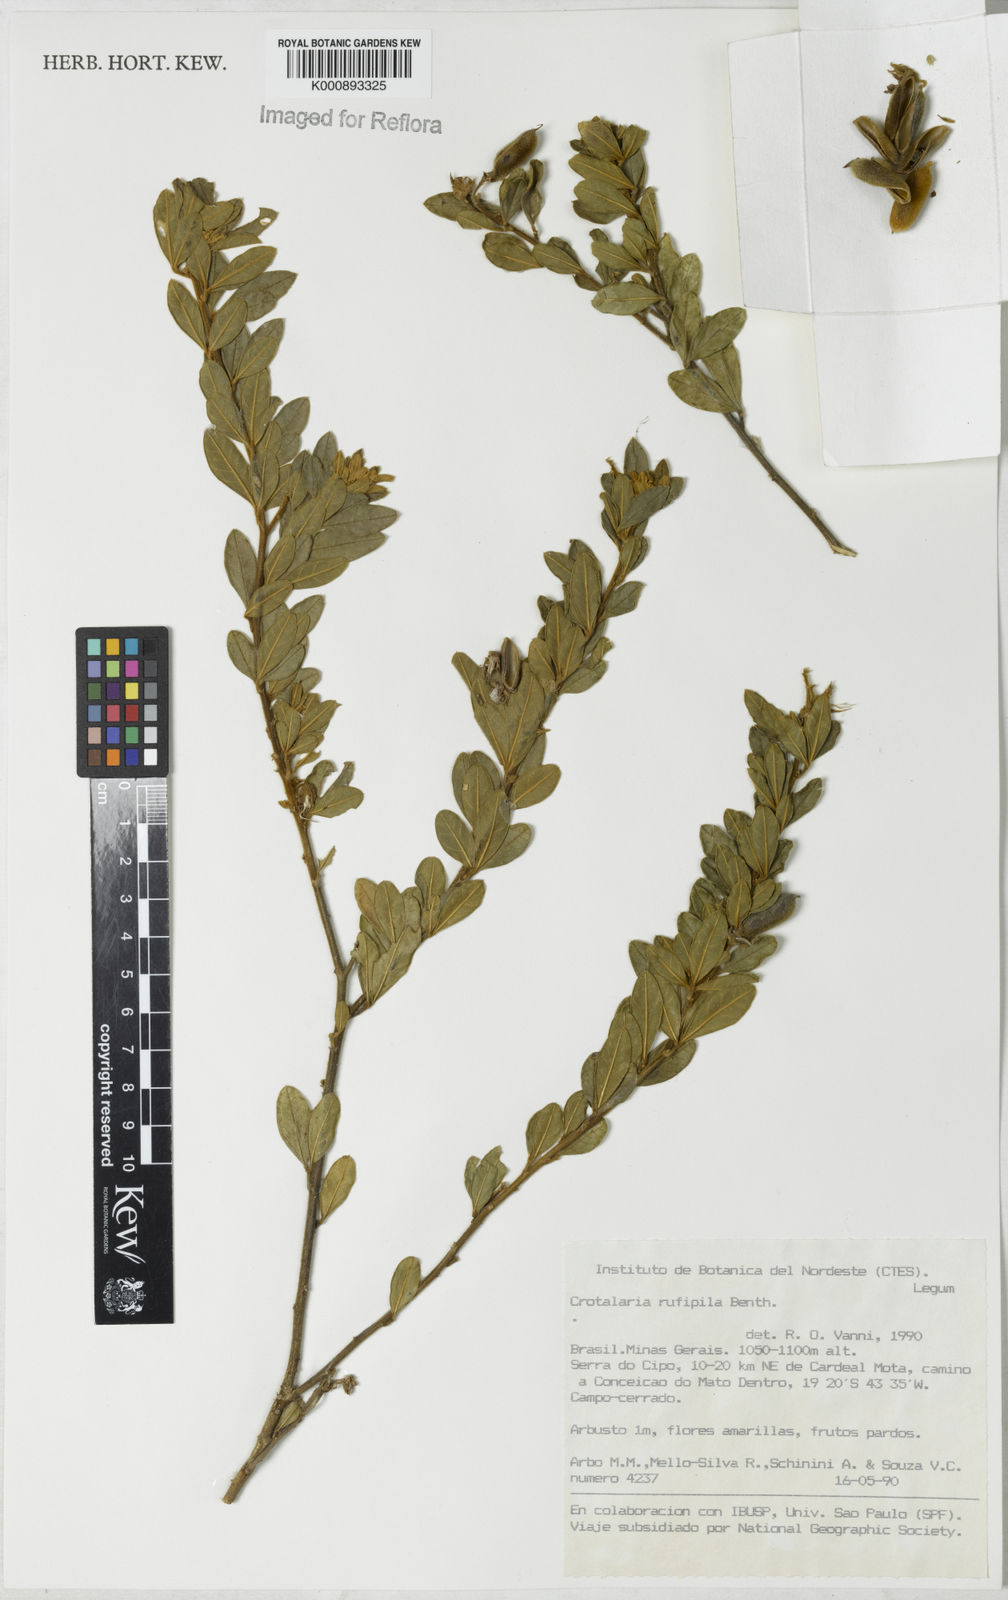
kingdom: Plantae
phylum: Tracheophyta
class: Magnoliopsida
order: Fabales
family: Fabaceae
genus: Crotalaria
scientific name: Crotalaria rufipila
